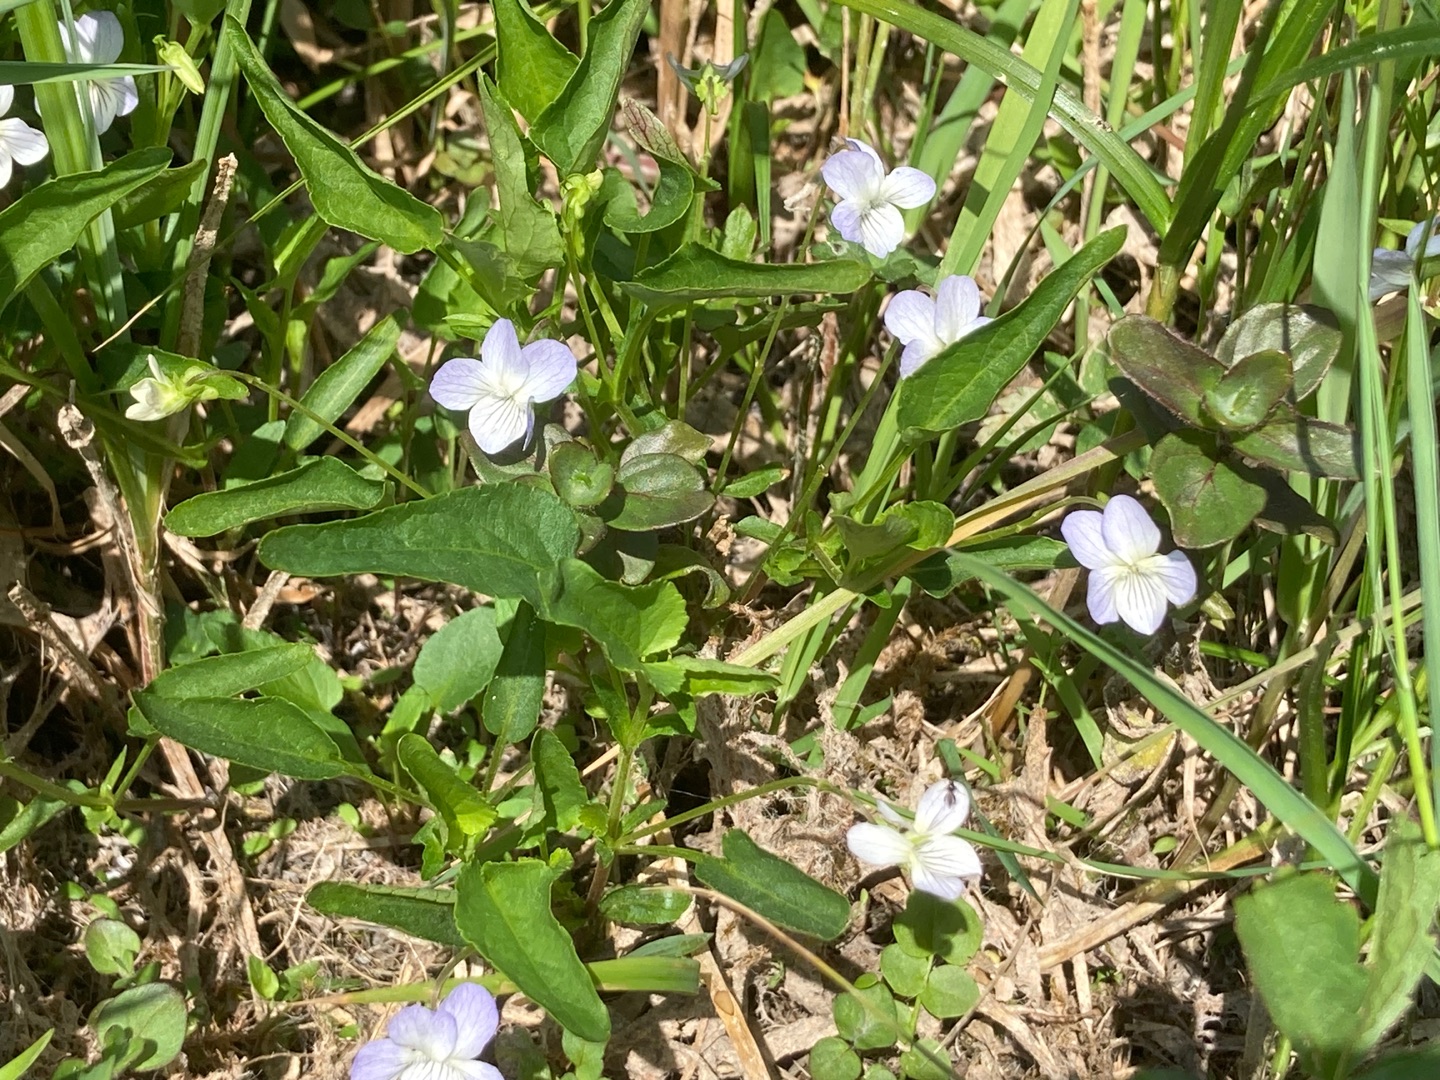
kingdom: Plantae
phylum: Tracheophyta
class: Magnoliopsida
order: Malpighiales
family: Violaceae
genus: Viola
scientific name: Viola stagnina
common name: Rank viol
